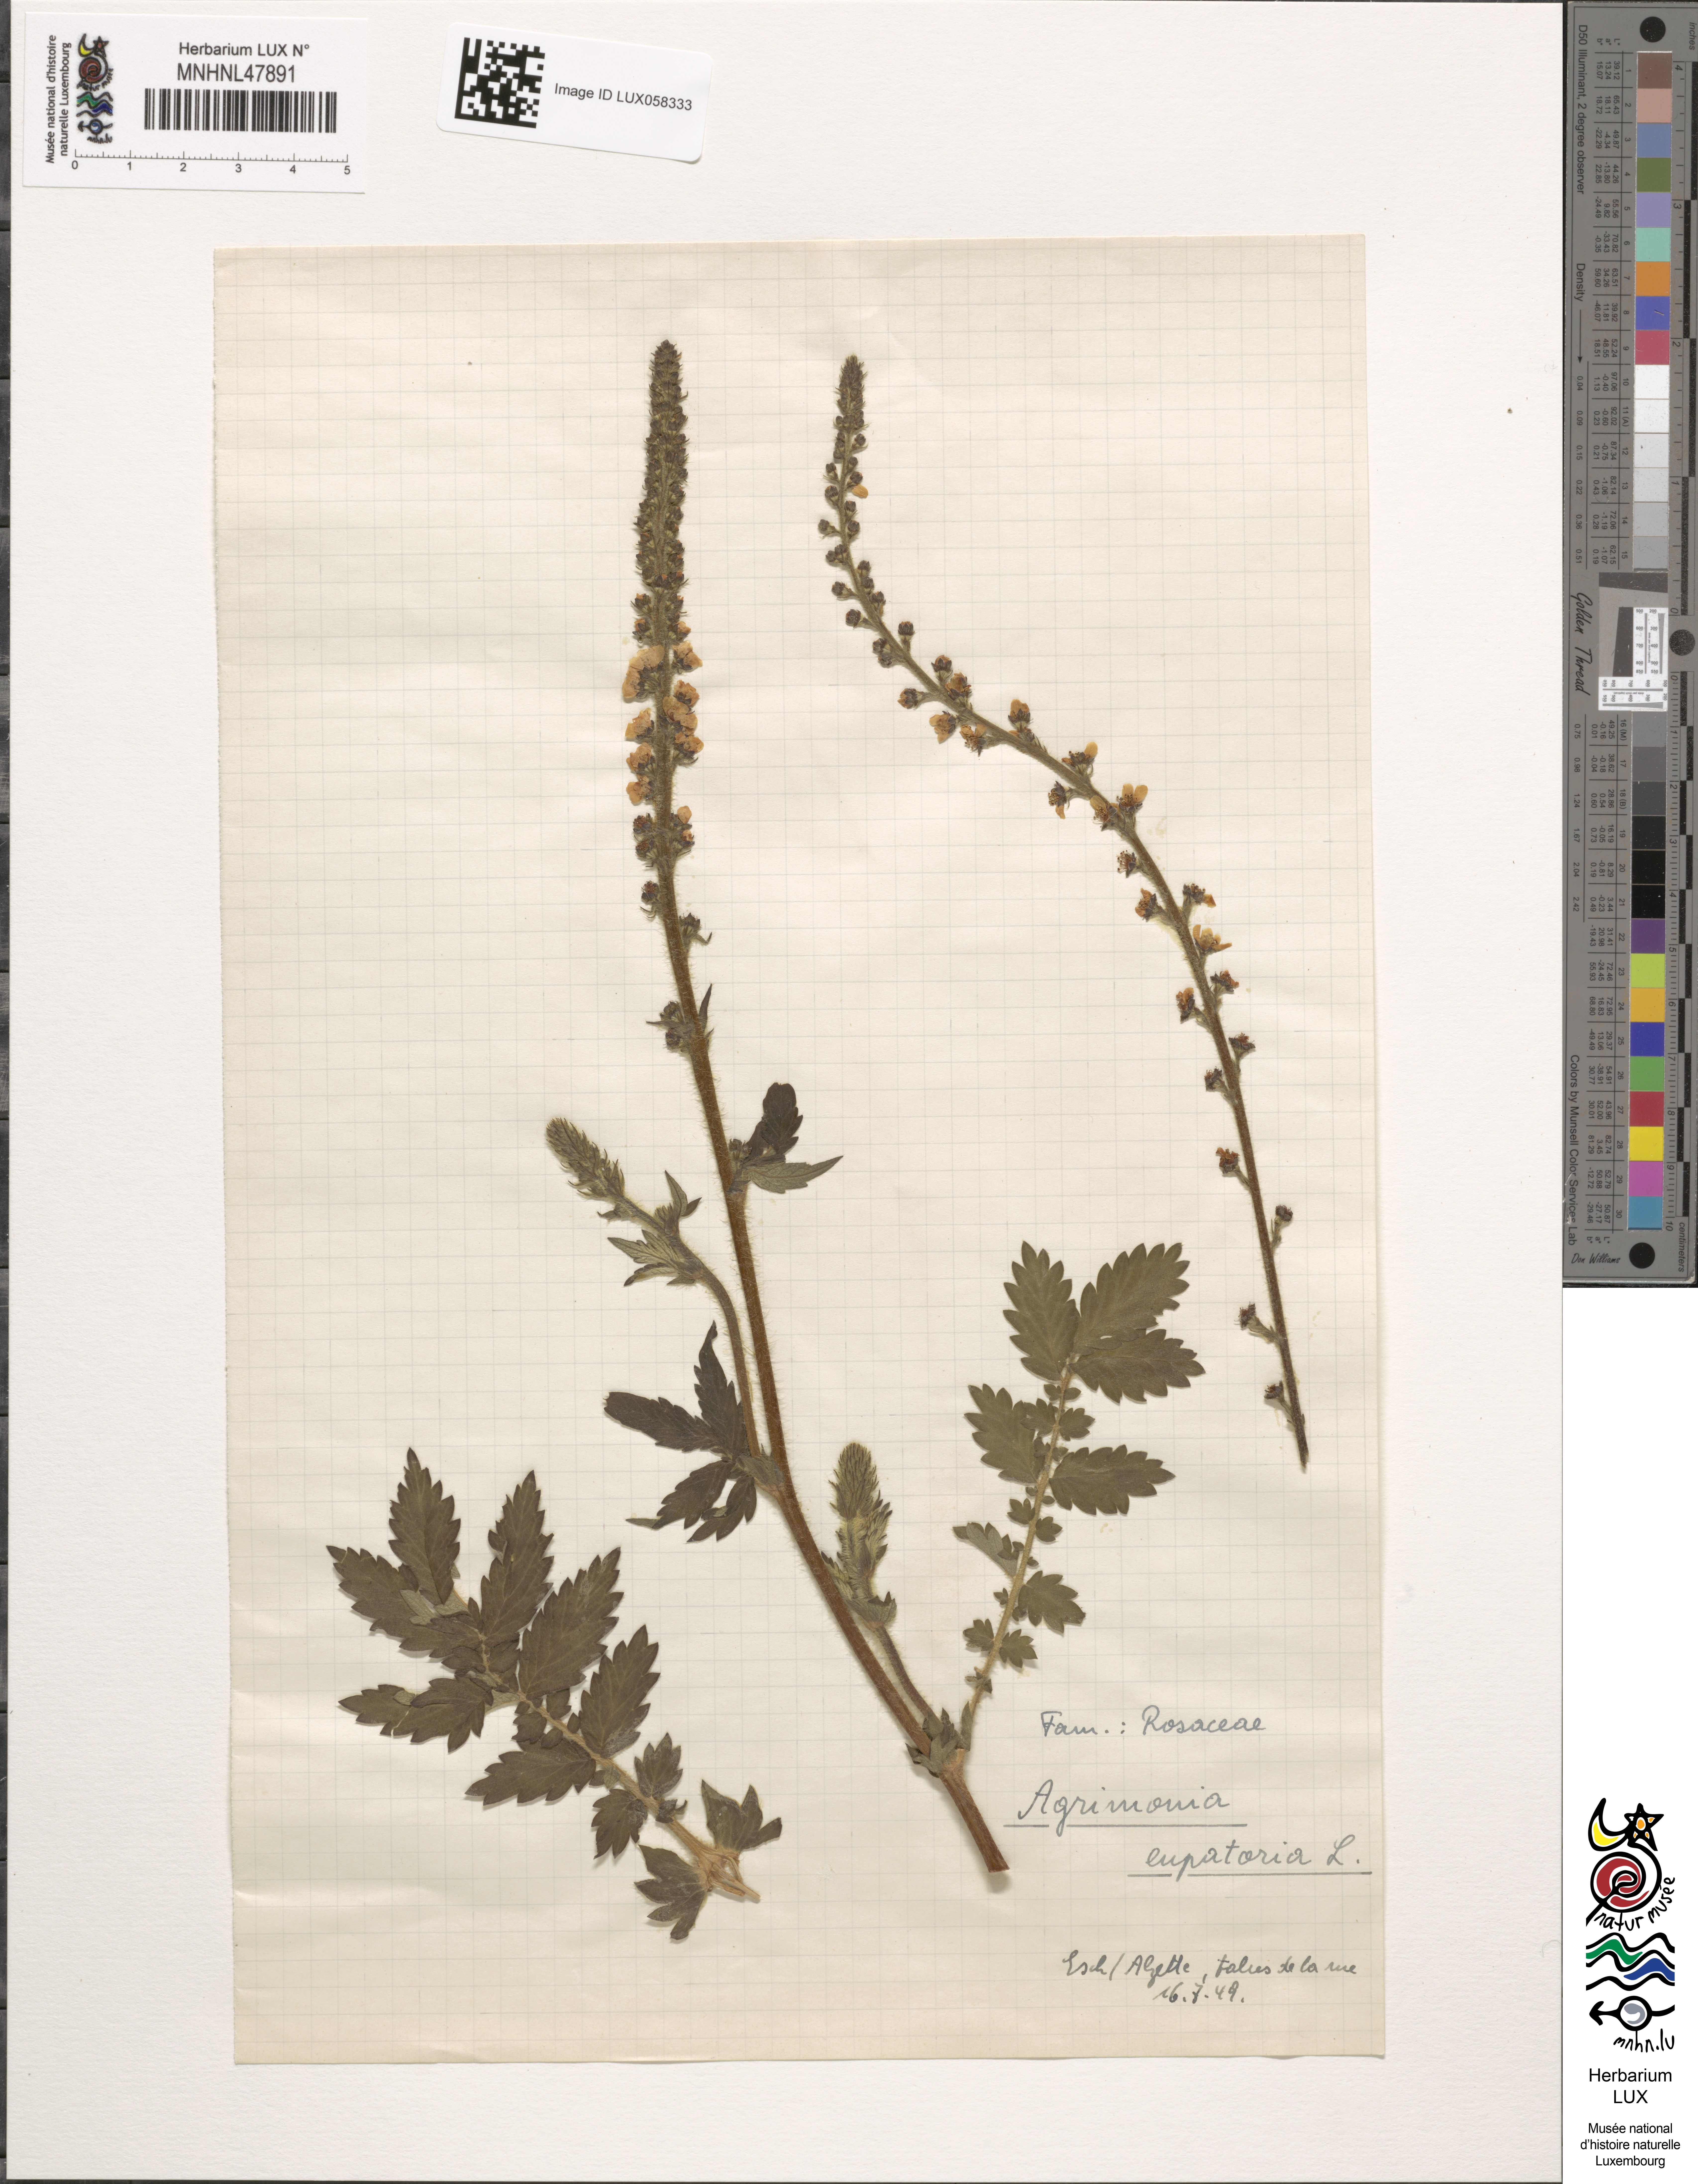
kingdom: Plantae
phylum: Tracheophyta
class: Magnoliopsida
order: Rosales
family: Rosaceae
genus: Agrimonia
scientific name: Agrimonia eupatoria
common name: Agrimony
